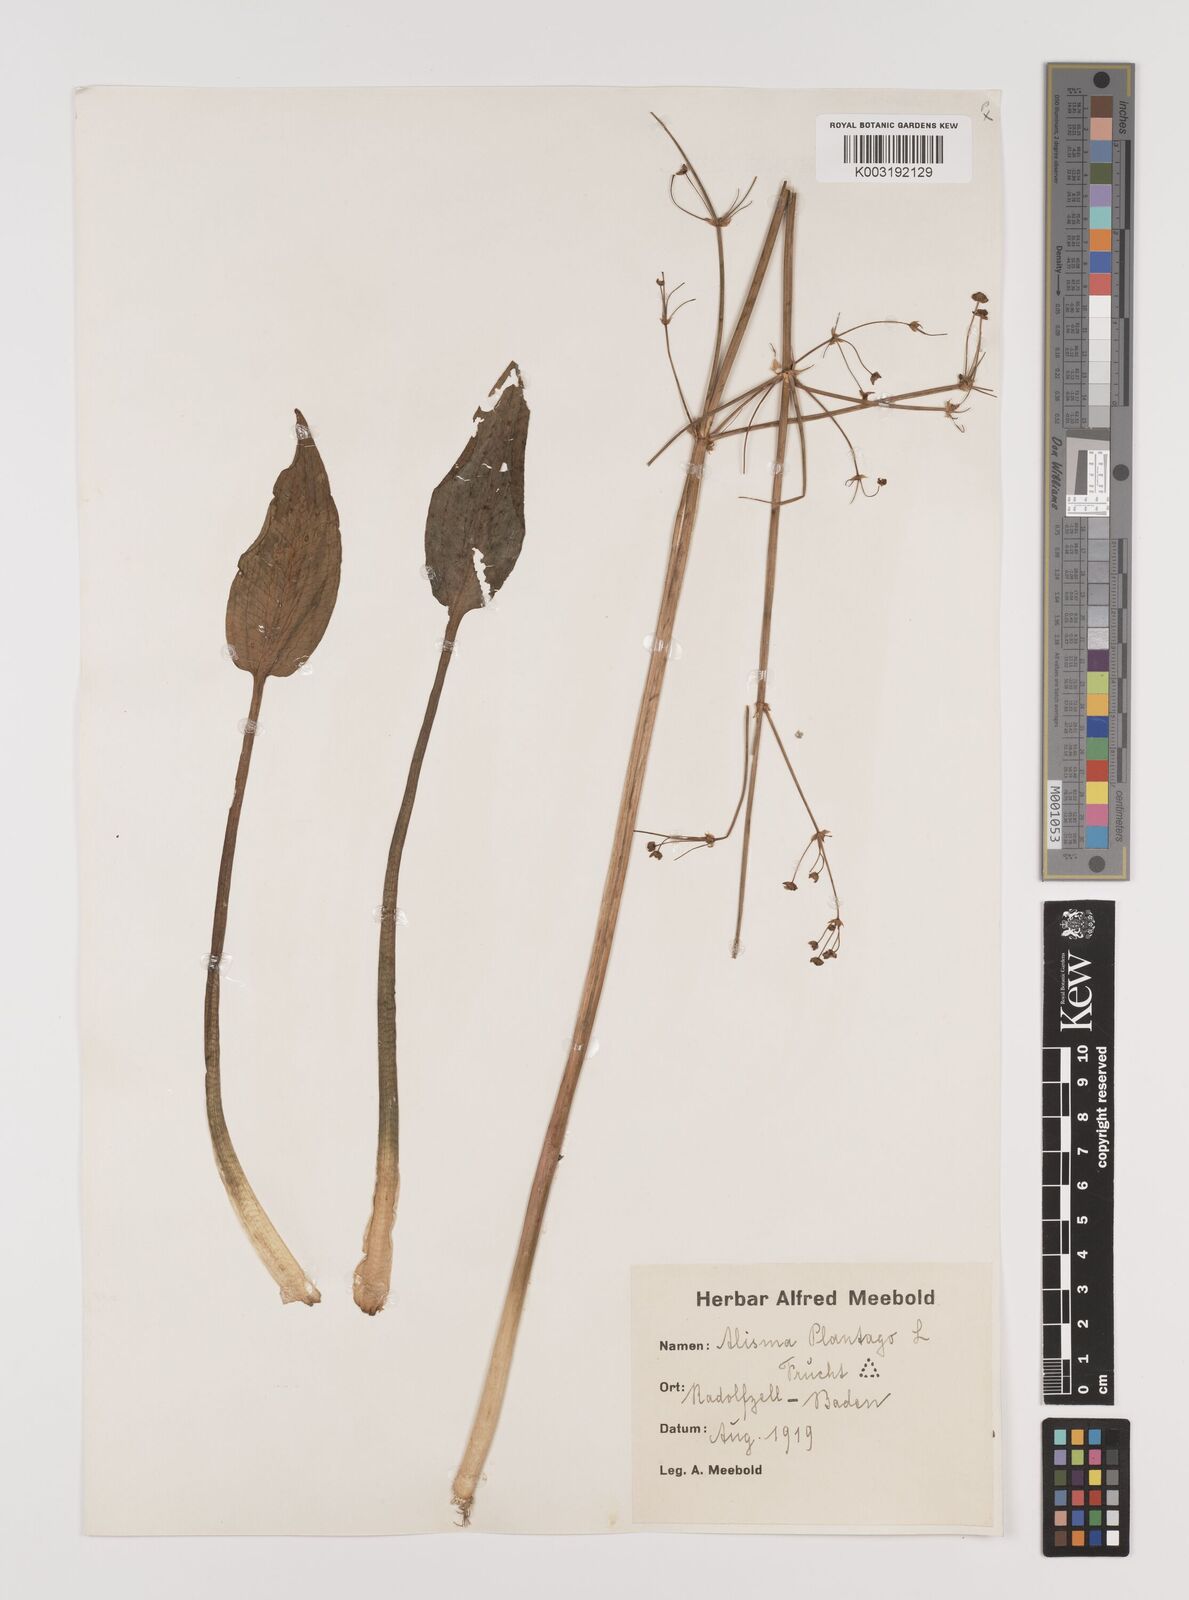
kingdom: Plantae
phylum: Tracheophyta
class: Liliopsida
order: Alismatales
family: Alismataceae
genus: Alisma
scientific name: Alisma plantago-aquatica
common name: Water-plantain
